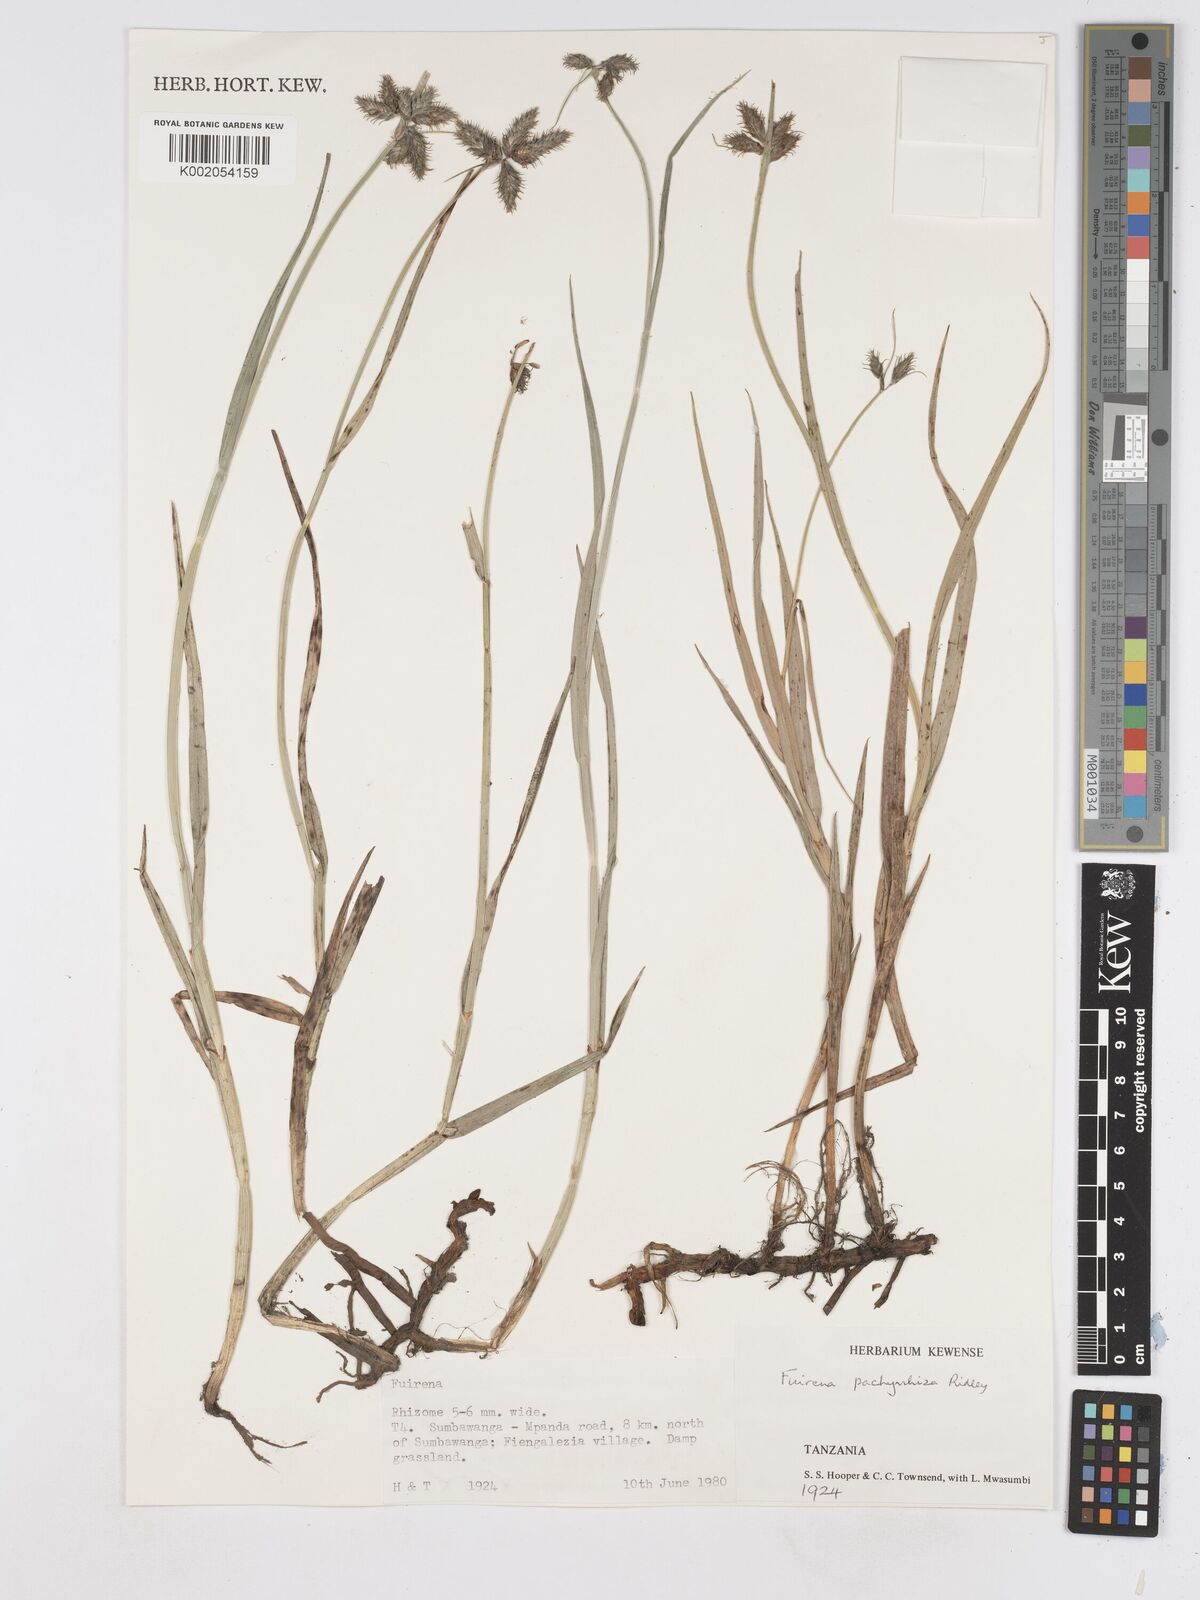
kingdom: Plantae
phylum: Tracheophyta
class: Liliopsida
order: Poales
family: Cyperaceae
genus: Fuirena
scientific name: Fuirena pachyrrhiza
